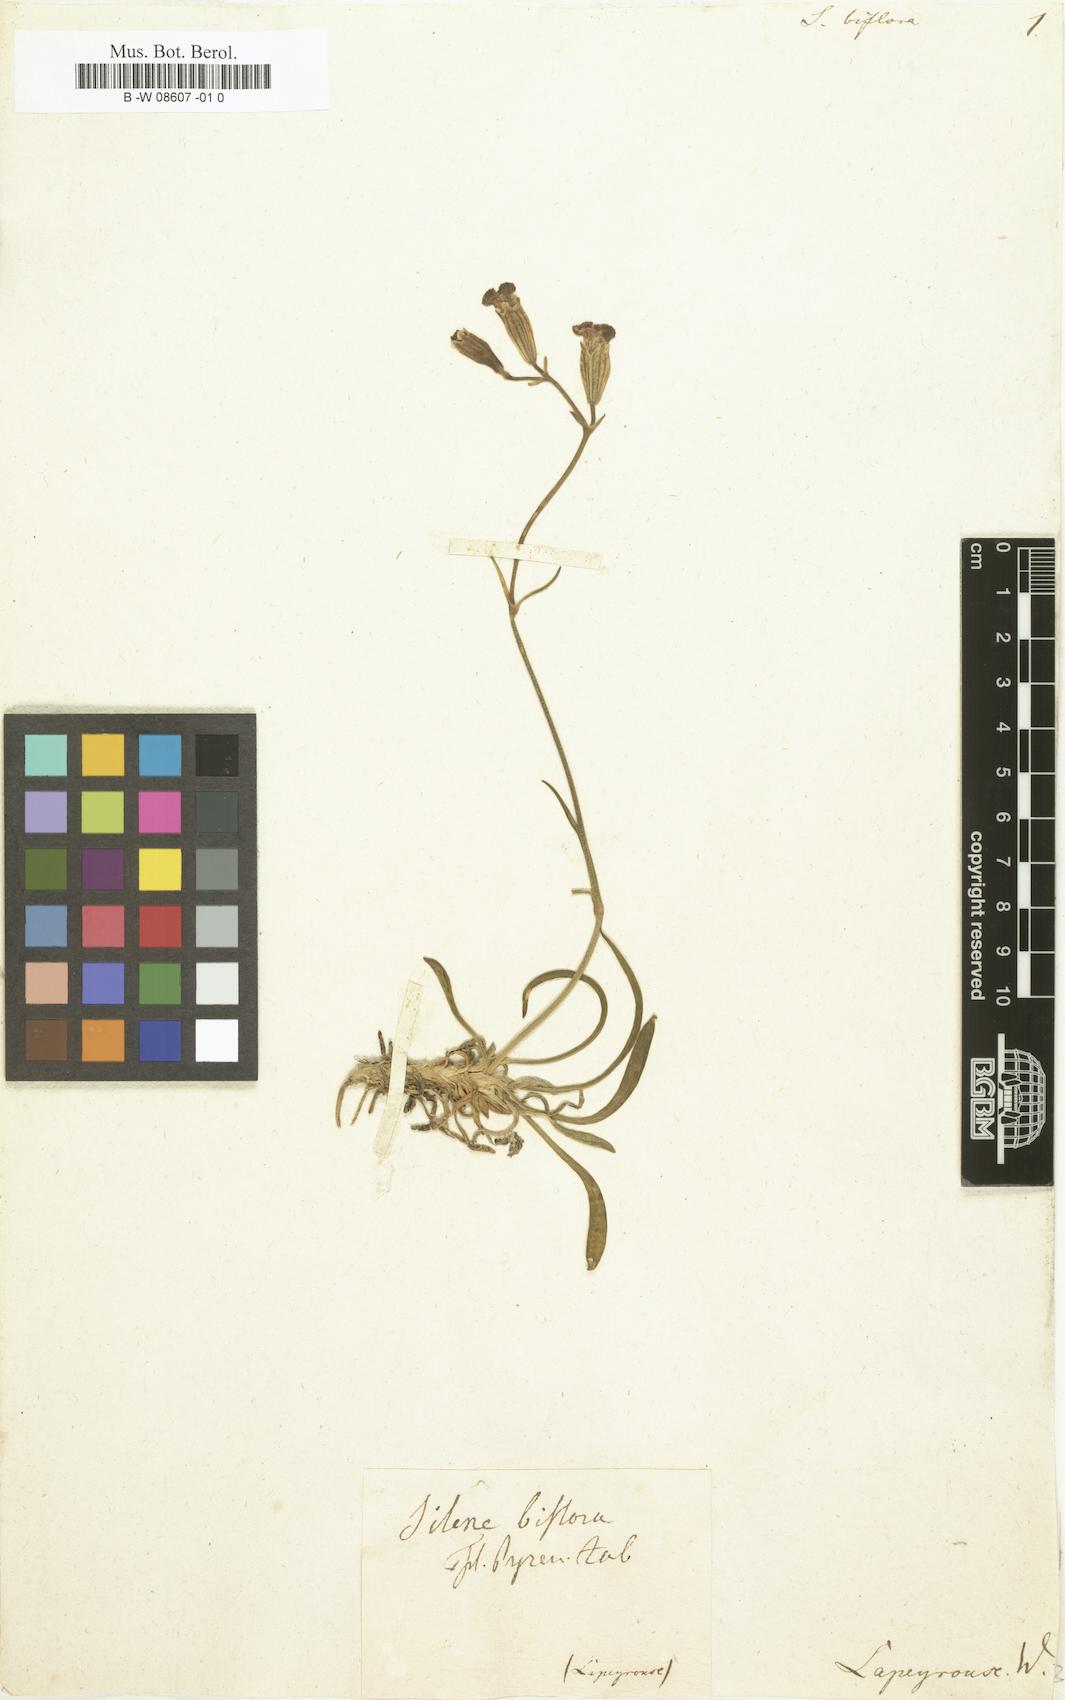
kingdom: Plantae
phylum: Tracheophyta
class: Magnoliopsida
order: Caryophyllales
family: Caryophyllaceae
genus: Silene
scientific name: Silene ciliata
